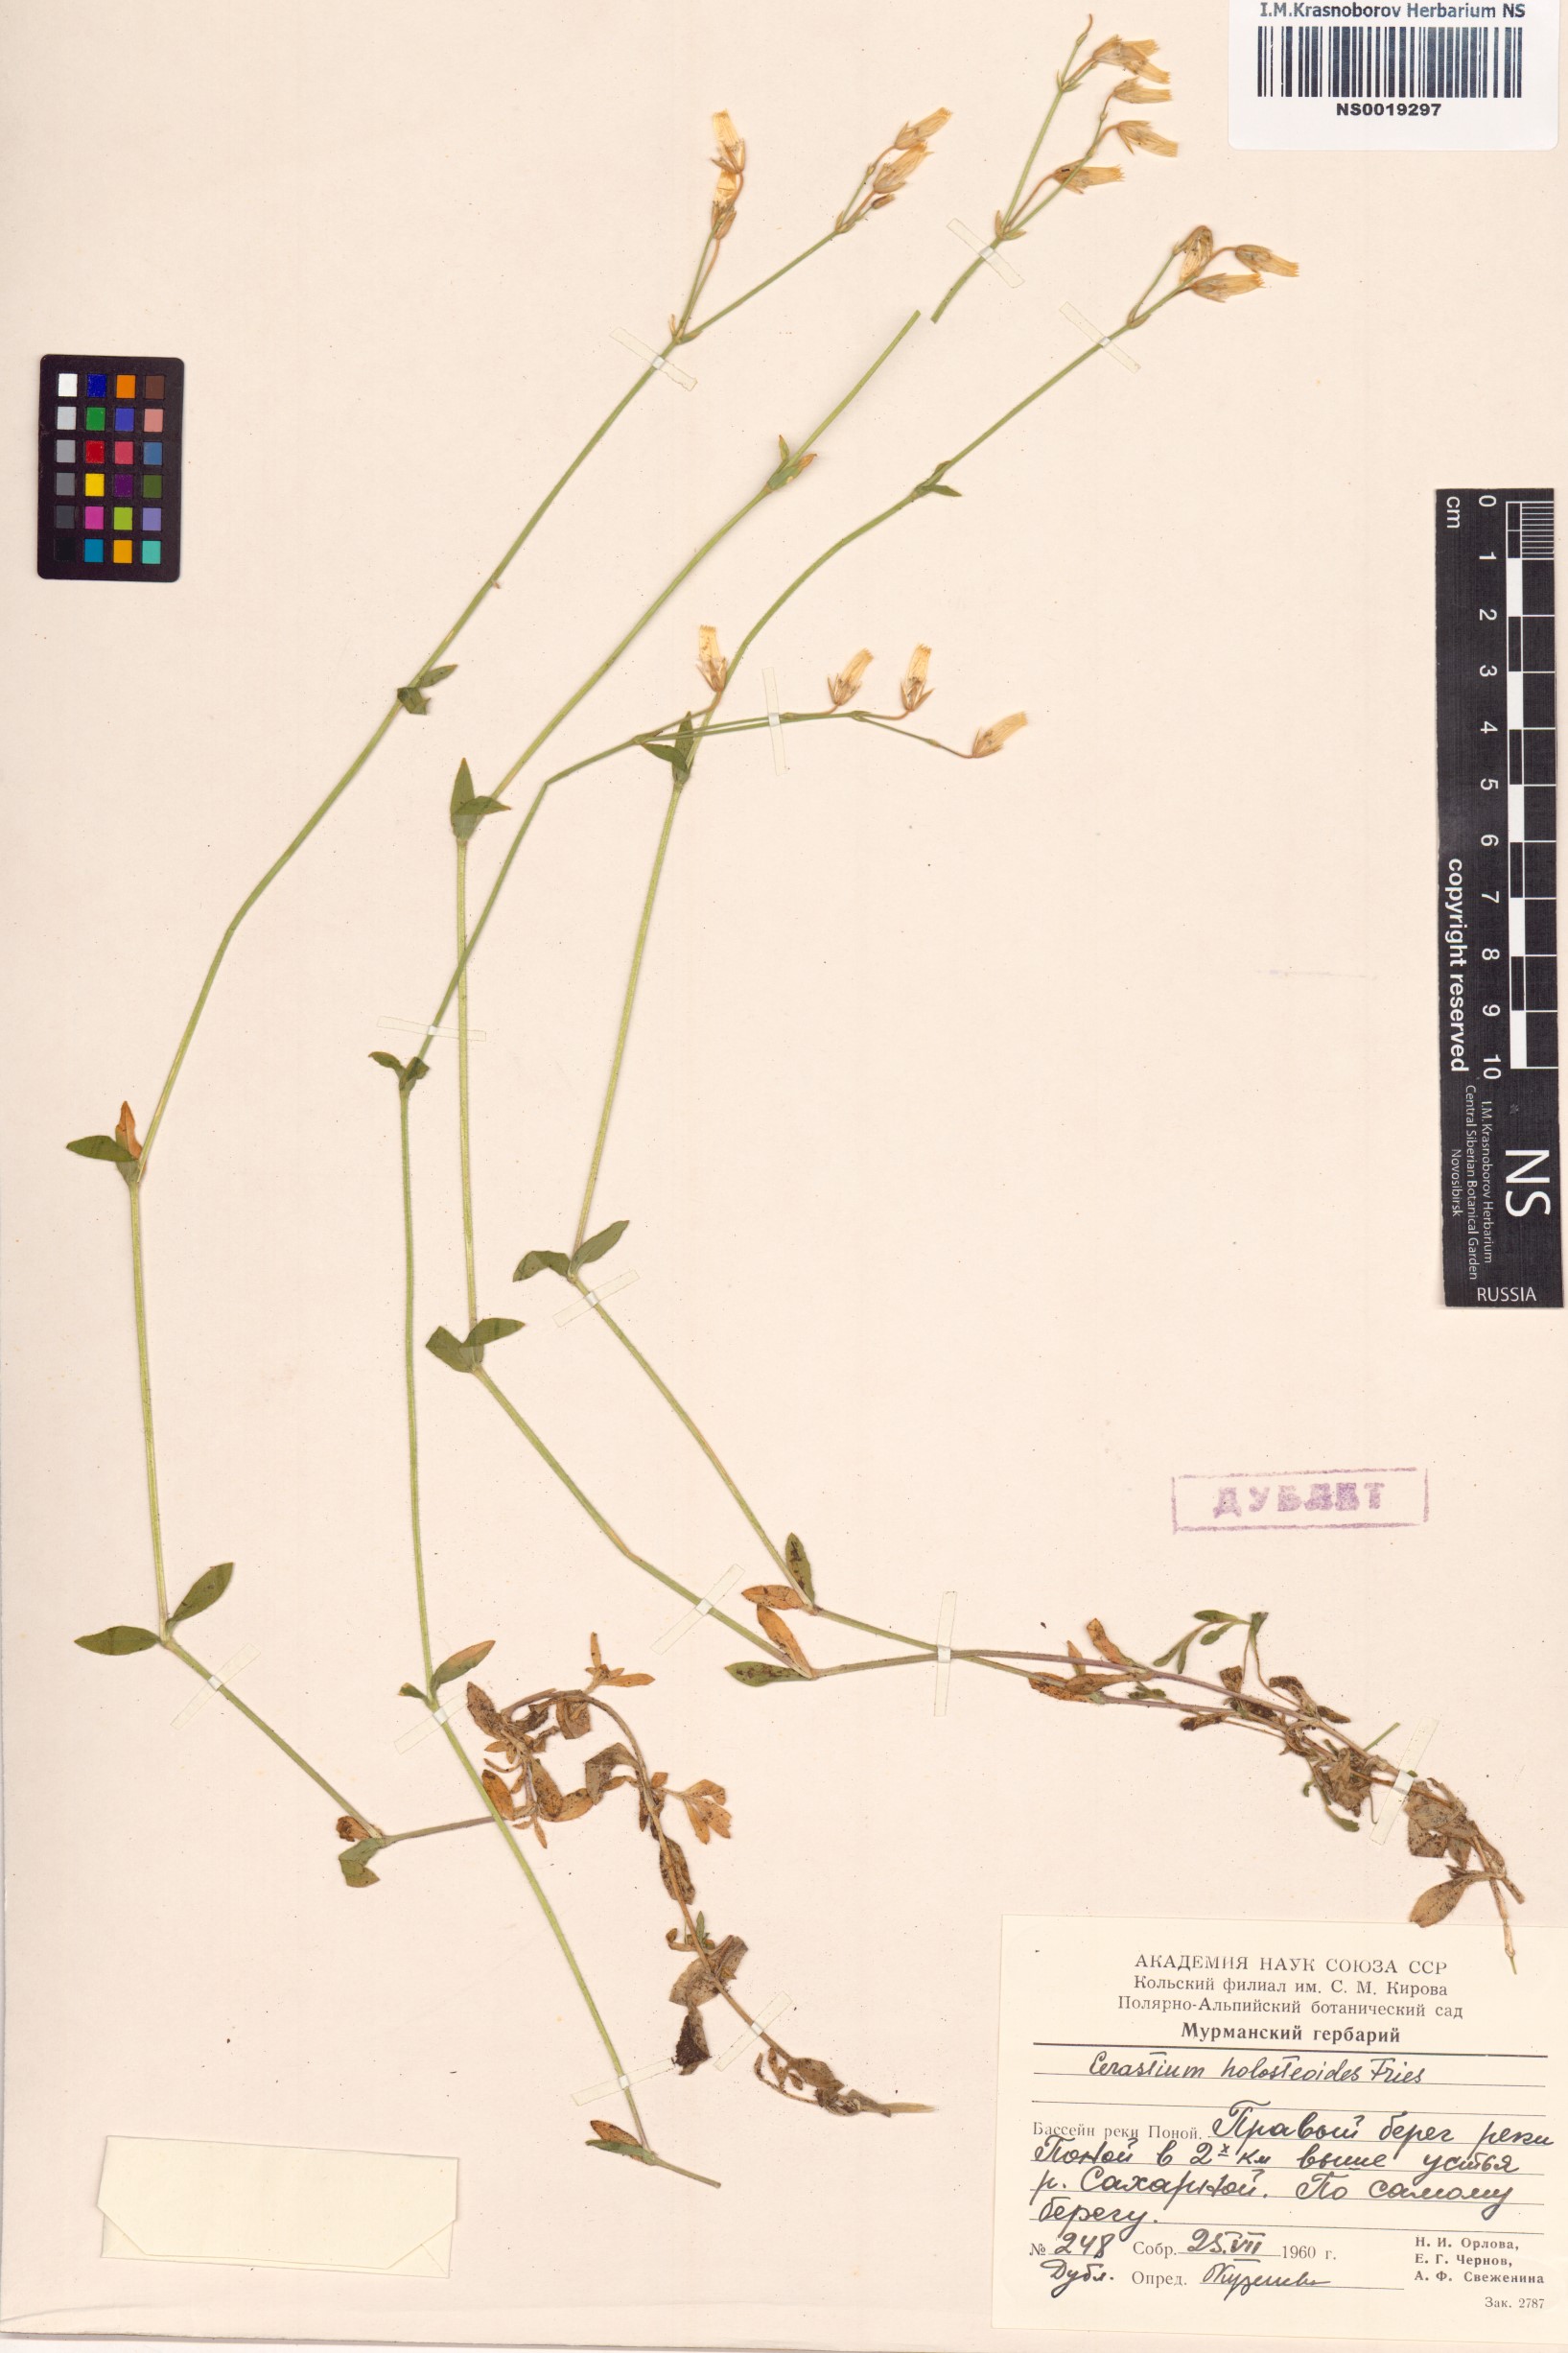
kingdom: Plantae
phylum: Tracheophyta
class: Magnoliopsida
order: Caryophyllales
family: Caryophyllaceae
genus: Cerastium
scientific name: Cerastium holosteoides
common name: Big chickweed
